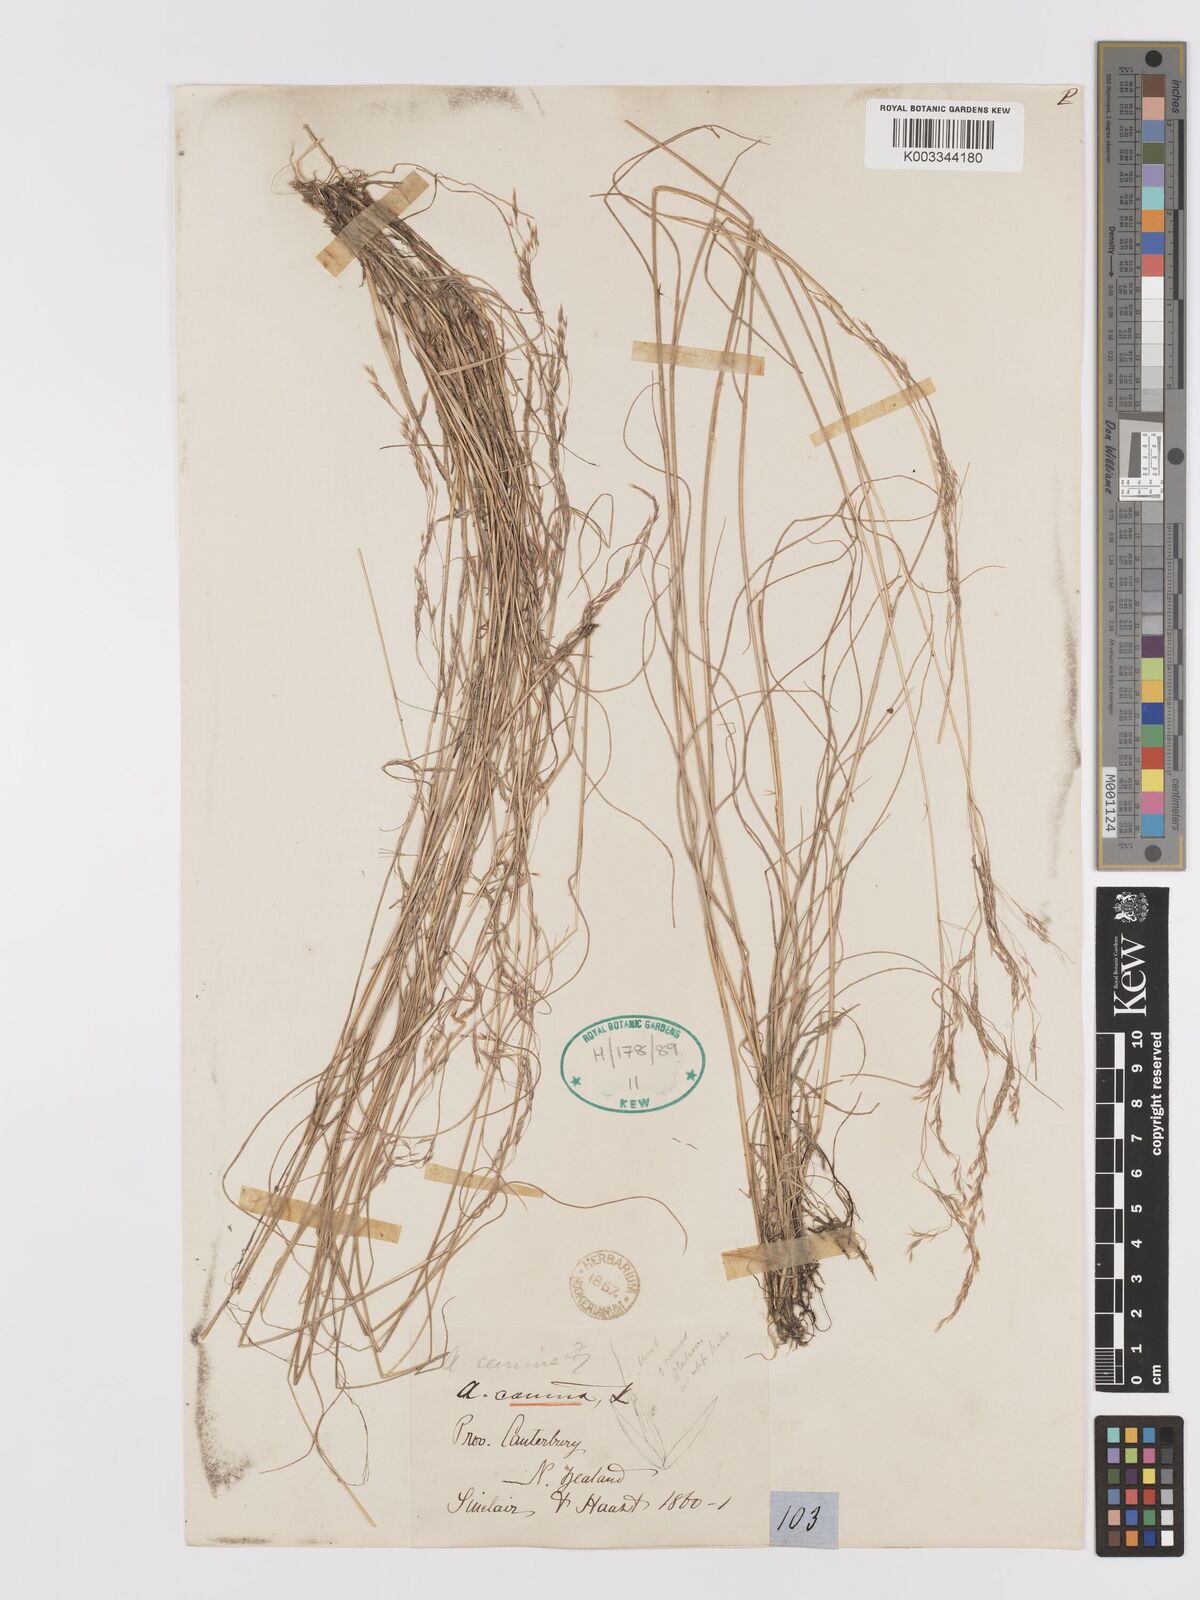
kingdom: Plantae
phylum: Tracheophyta
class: Liliopsida
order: Poales
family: Poaceae
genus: Agrostis
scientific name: Agrostis personata
